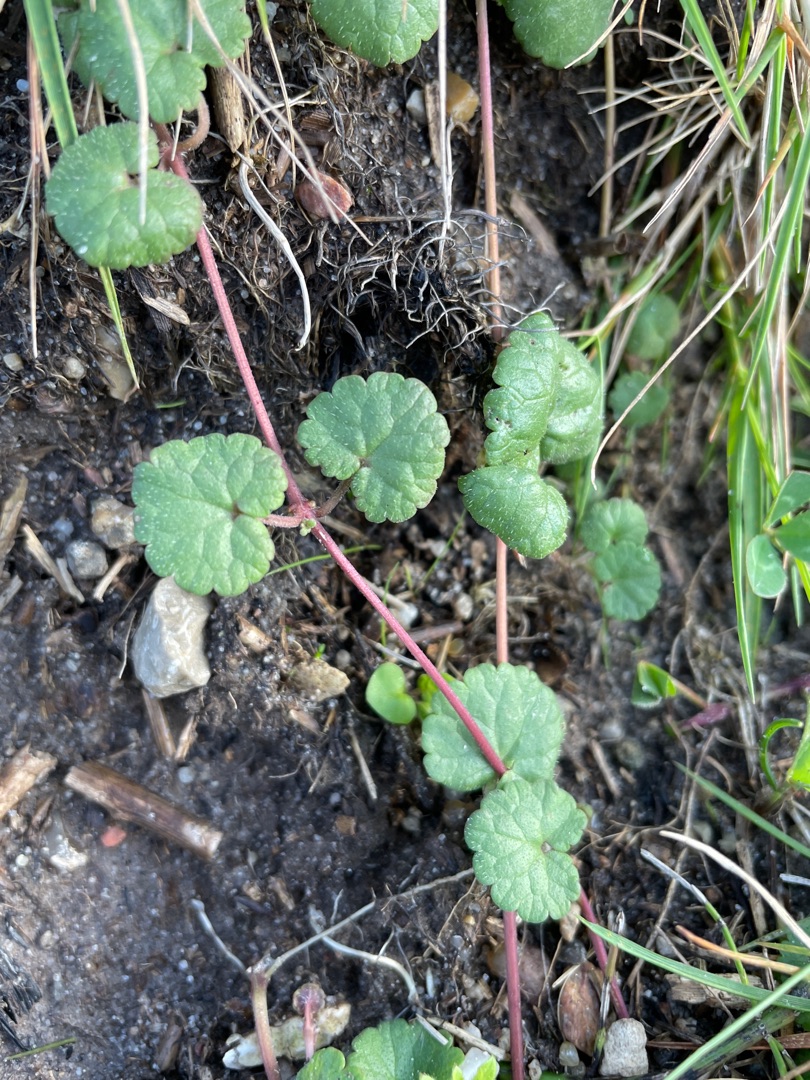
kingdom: Plantae
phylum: Tracheophyta
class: Magnoliopsida
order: Lamiales
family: Lamiaceae
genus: Glechoma
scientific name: Glechoma hederacea
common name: Korsknap
